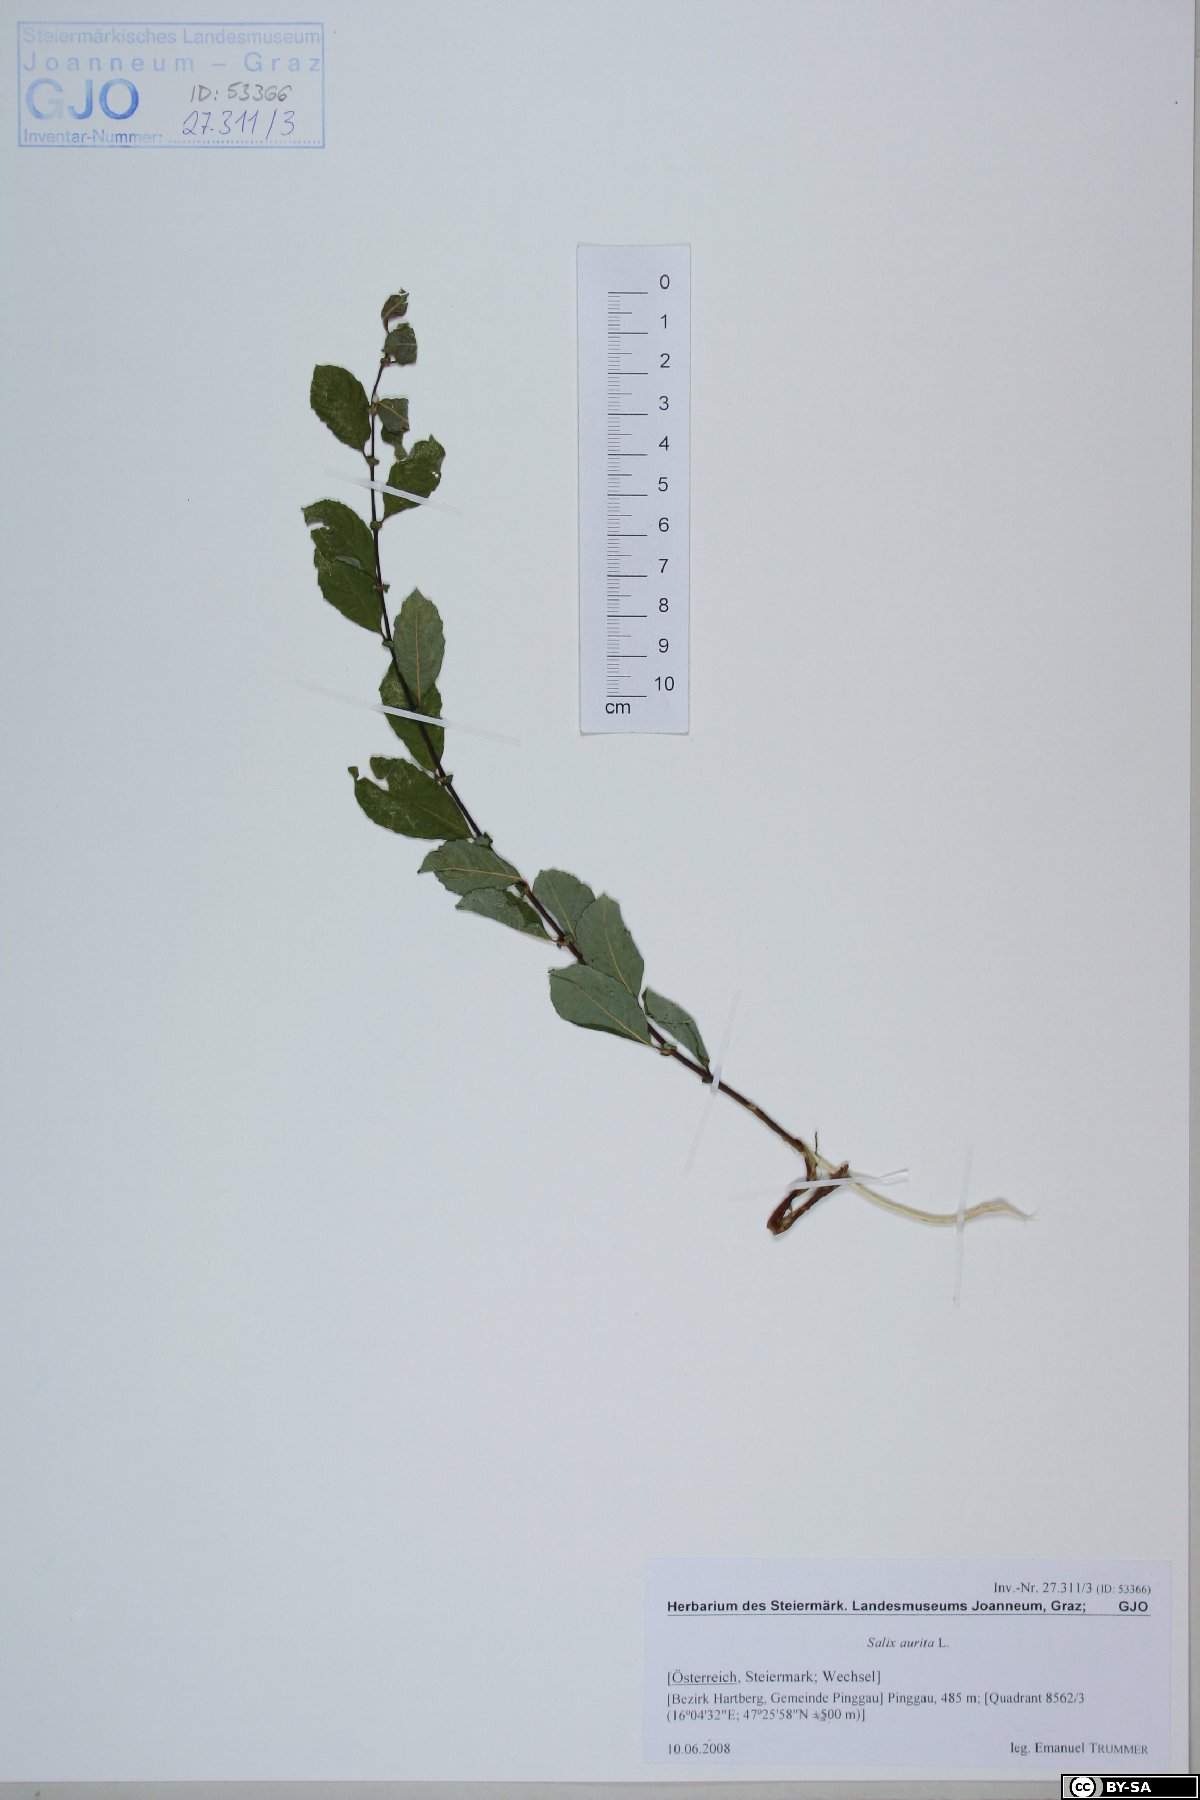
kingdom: Plantae
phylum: Tracheophyta
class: Magnoliopsida
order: Malpighiales
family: Salicaceae
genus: Salix
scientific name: Salix aurita
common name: Eared willow
